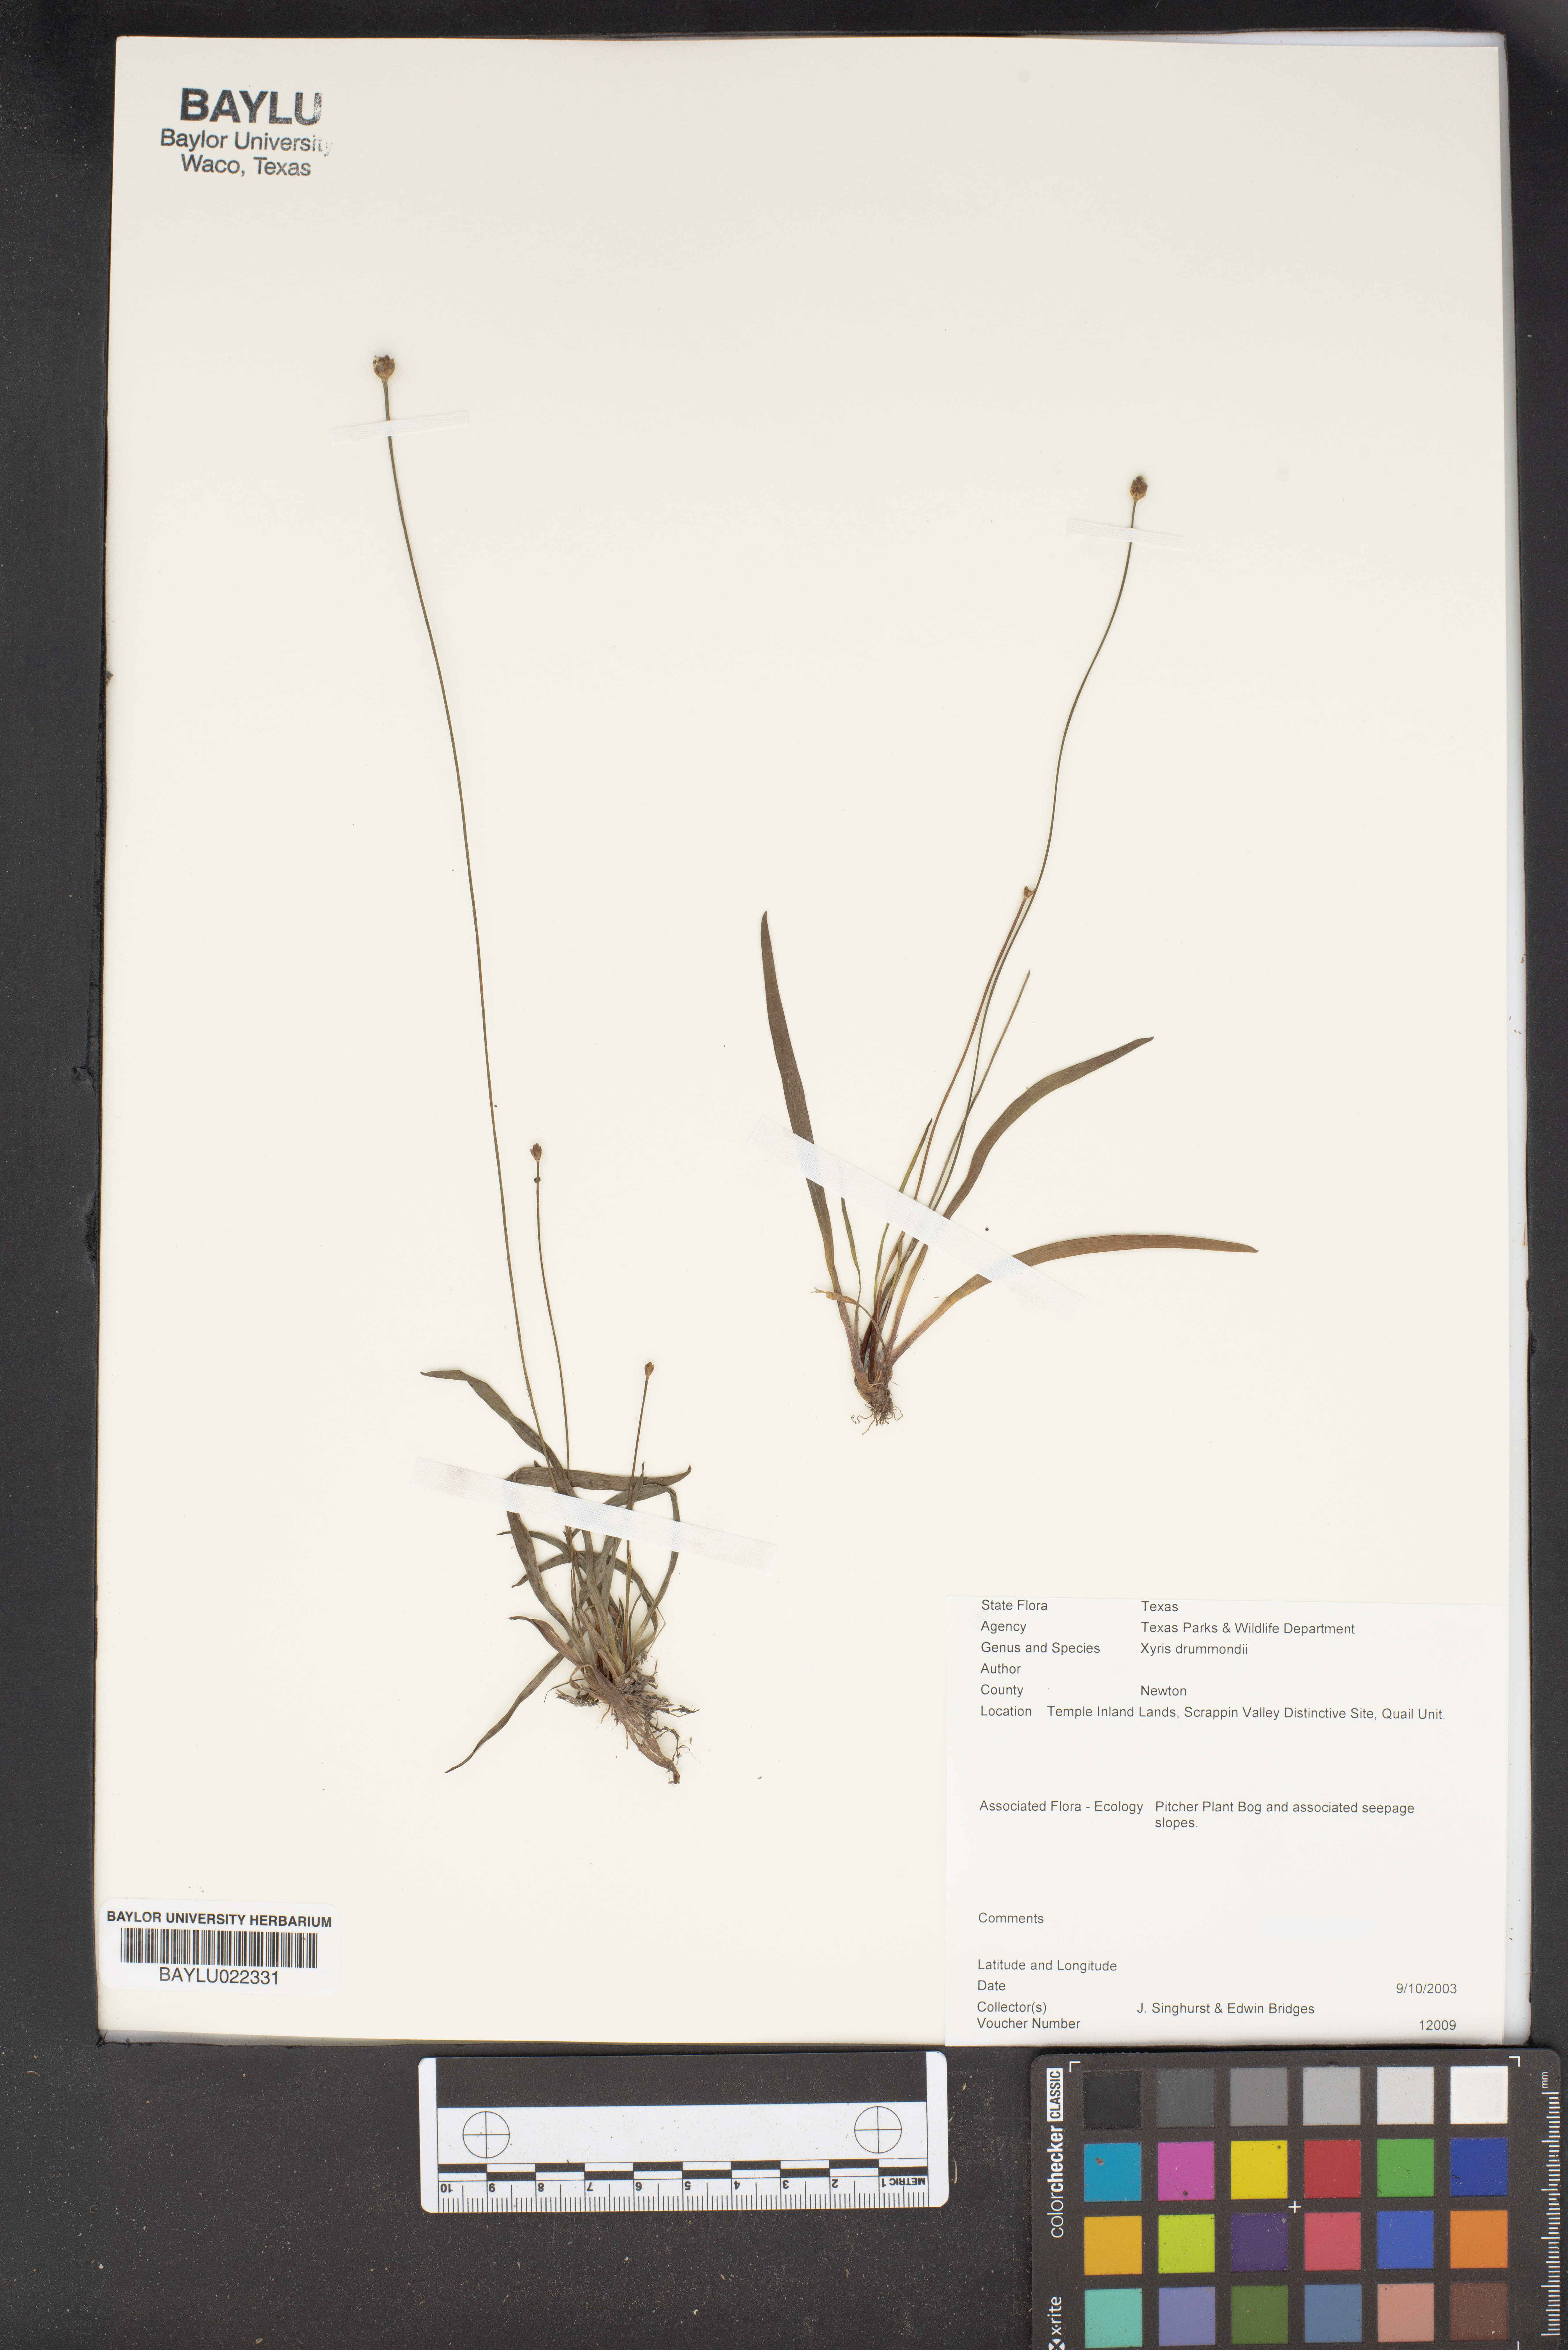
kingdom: Plantae
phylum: Tracheophyta
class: Liliopsida
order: Poales
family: Xyridaceae
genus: Xyris
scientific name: Xyris drummondii
